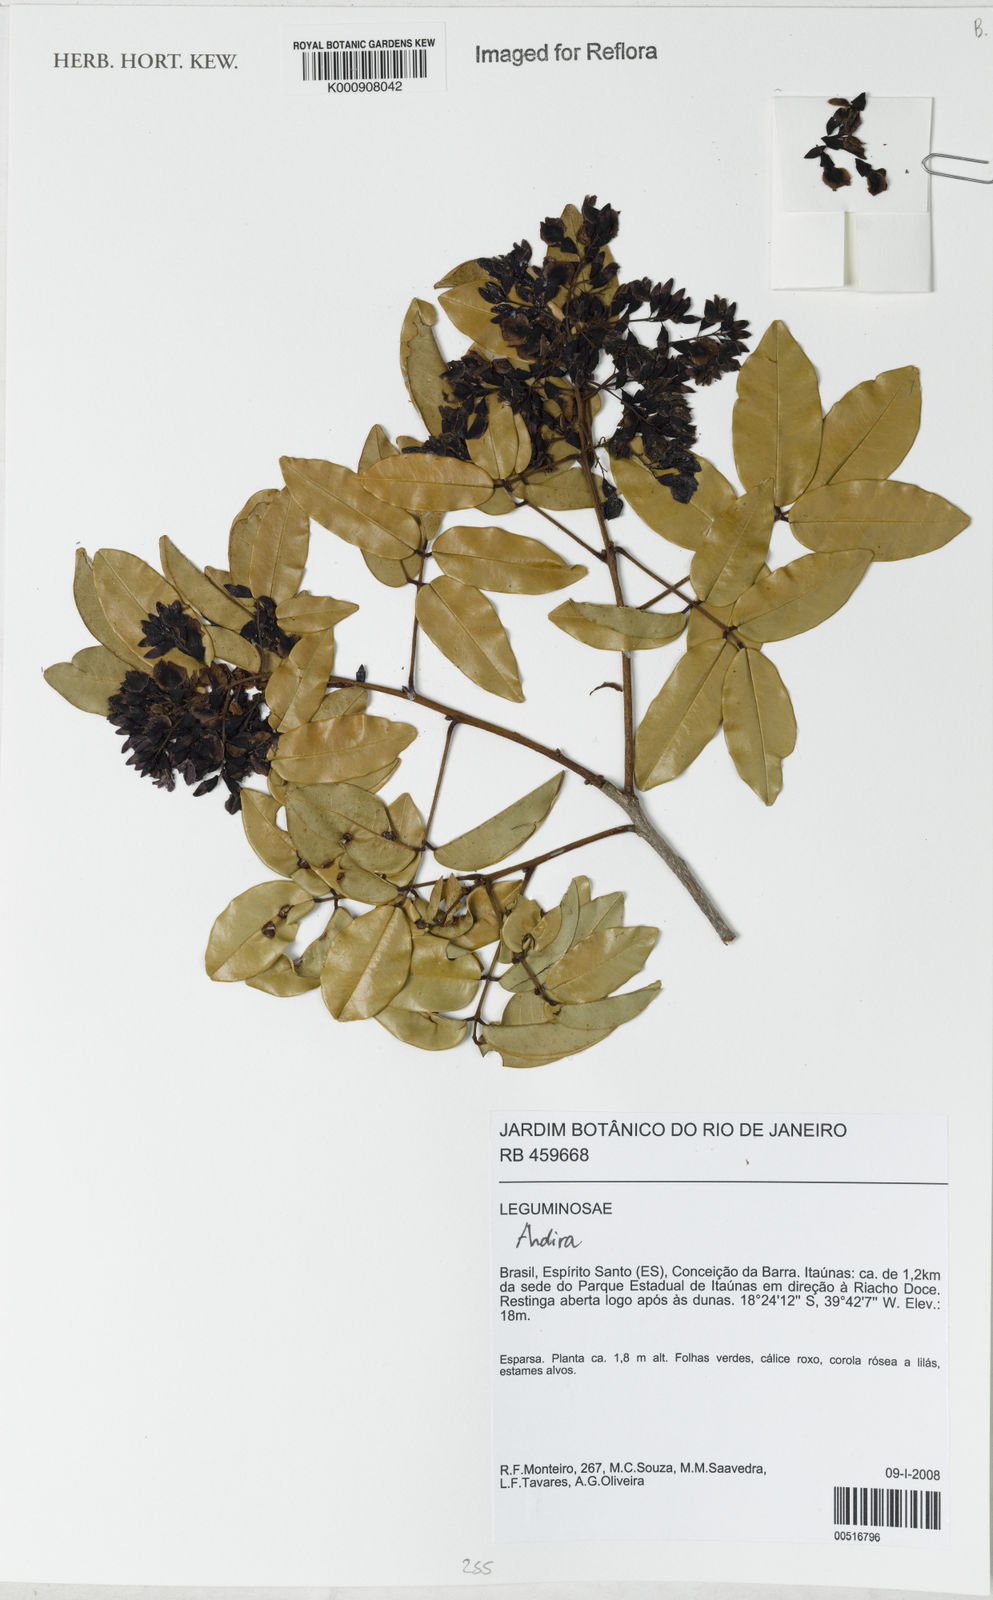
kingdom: Plantae
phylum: Tracheophyta
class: Magnoliopsida
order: Fabales
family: Fabaceae
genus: Andira
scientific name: Andira
